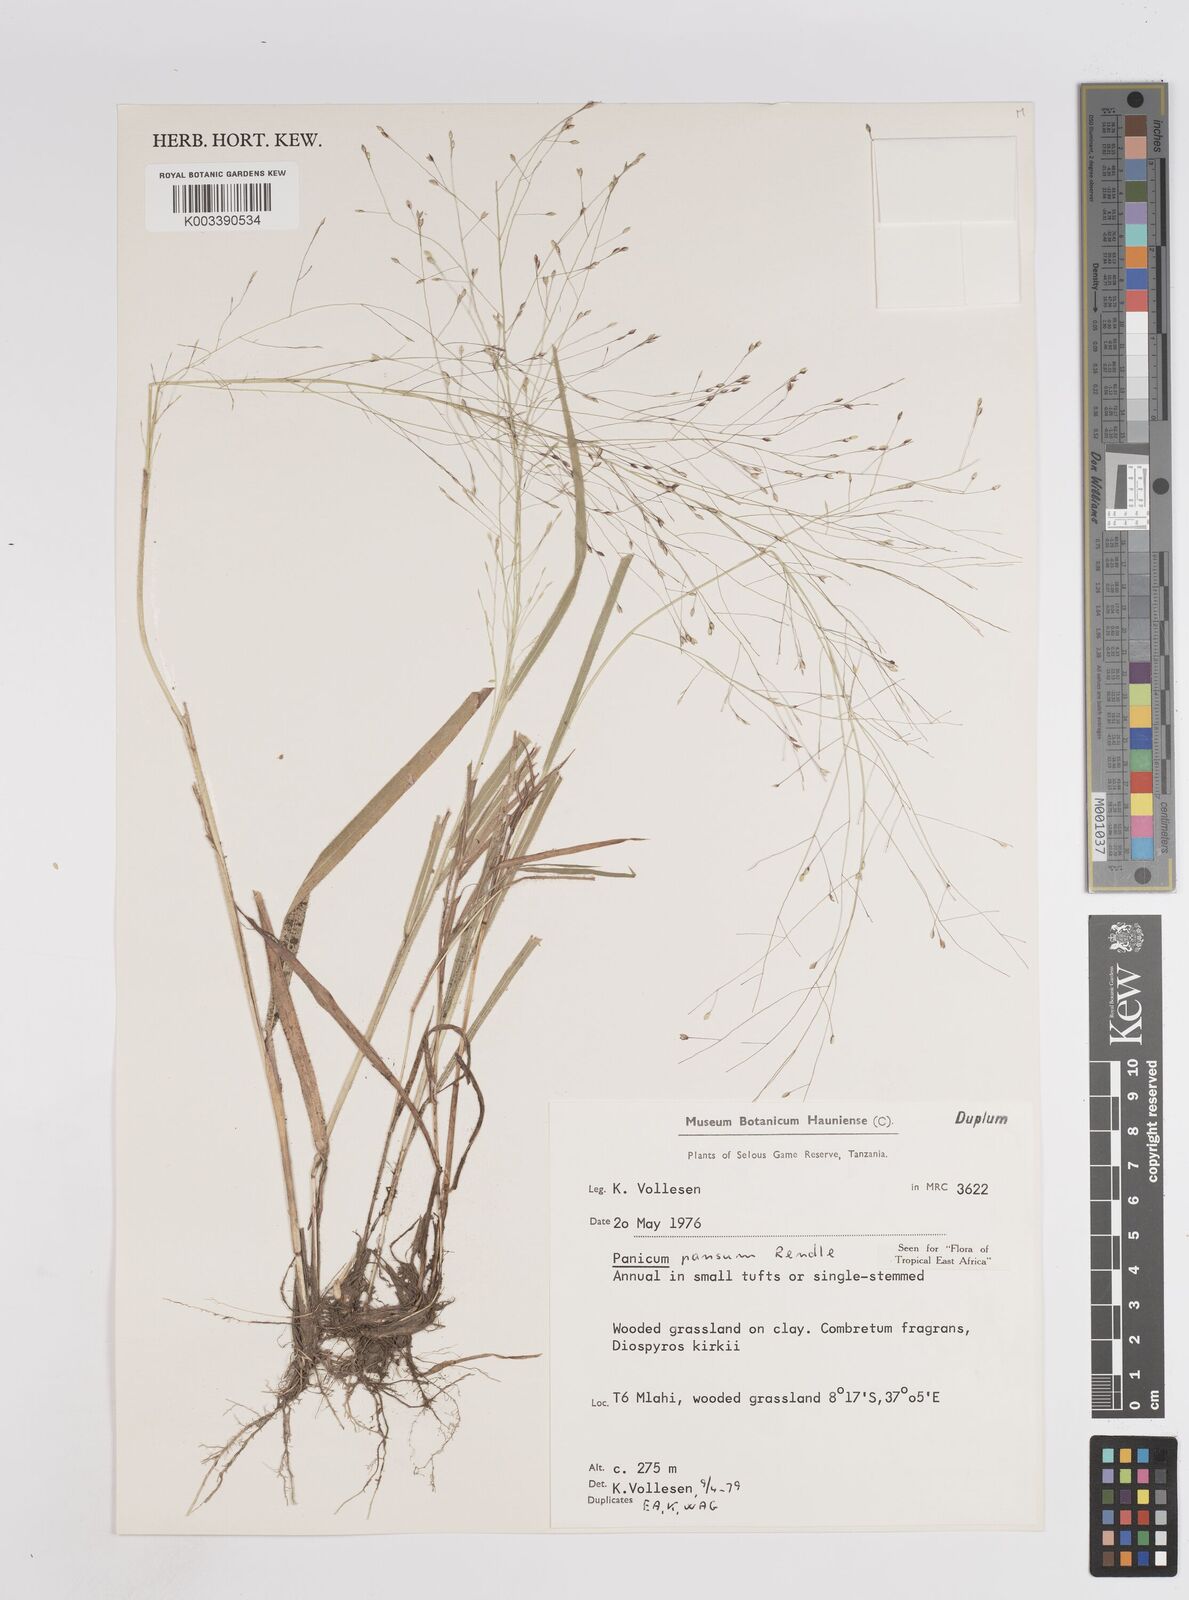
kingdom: Plantae
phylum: Tracheophyta
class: Liliopsida
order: Poales
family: Poaceae
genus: Panicum
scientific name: Panicum pansum
